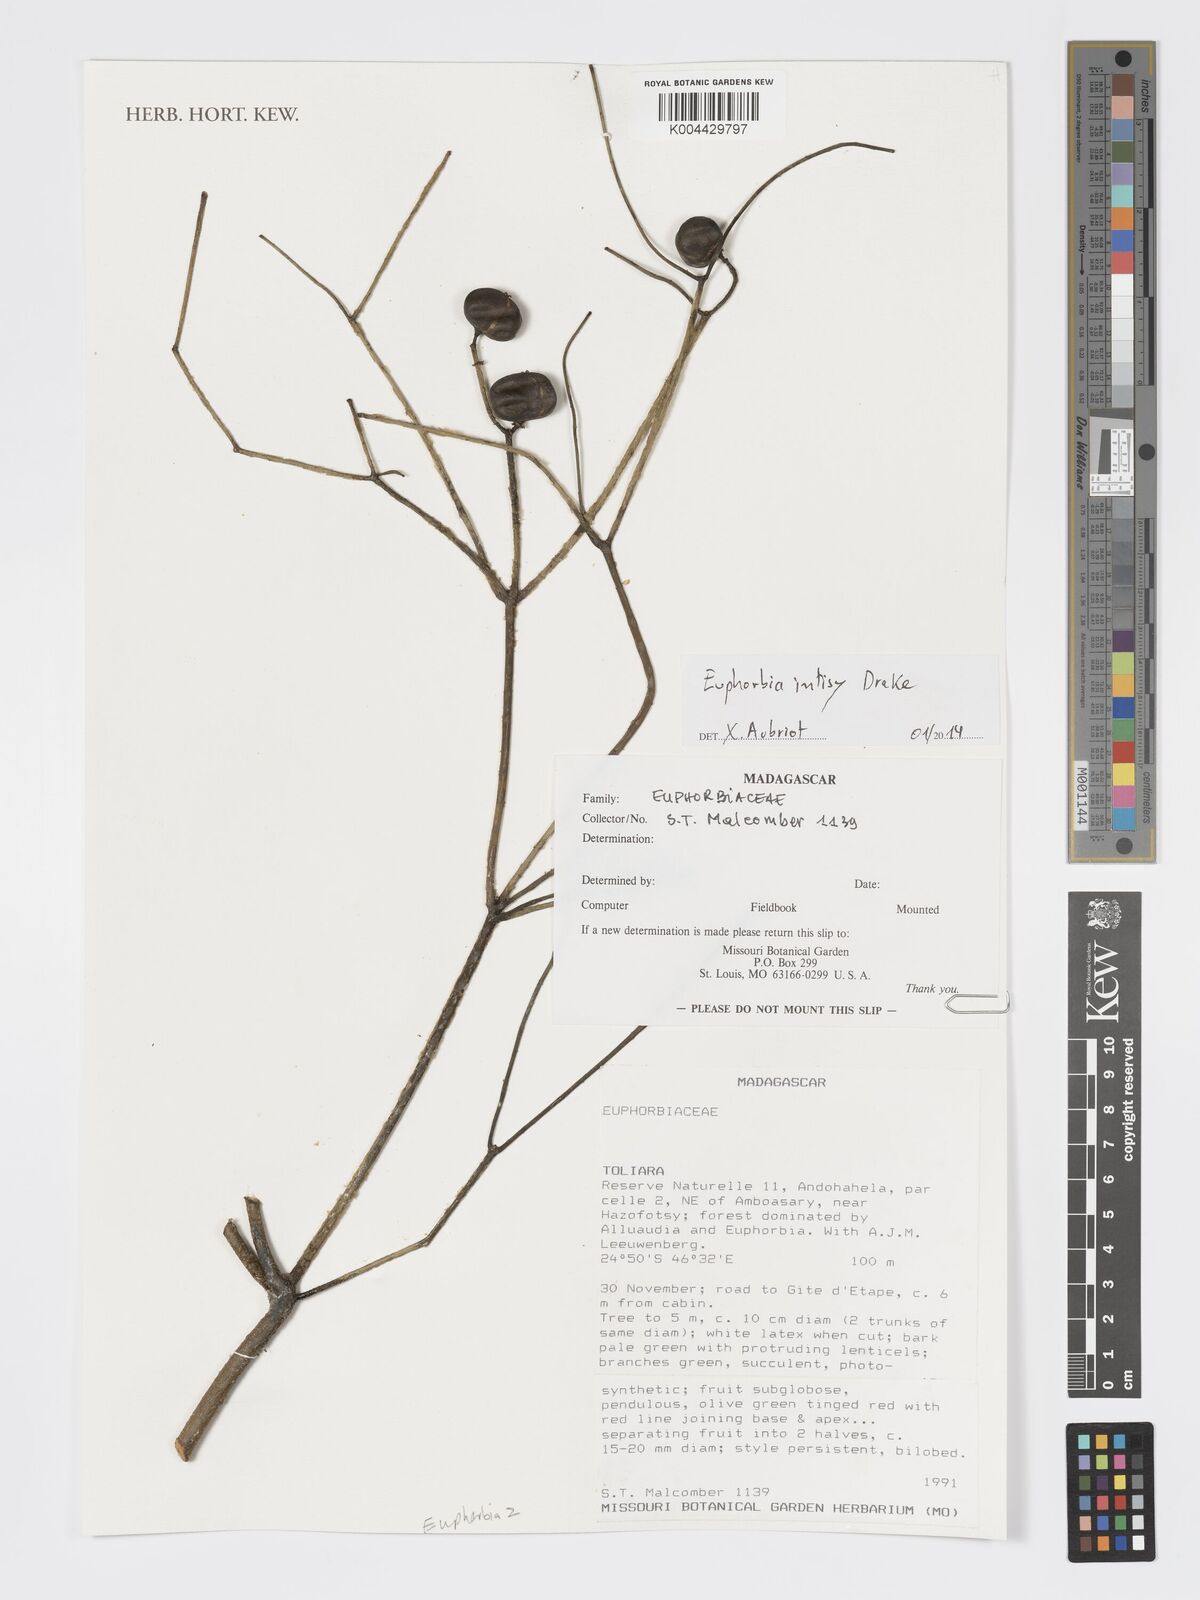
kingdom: Plantae
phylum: Tracheophyta
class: Magnoliopsida
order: Malpighiales
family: Euphorbiaceae
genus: Euphorbia
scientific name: Euphorbia intisy
